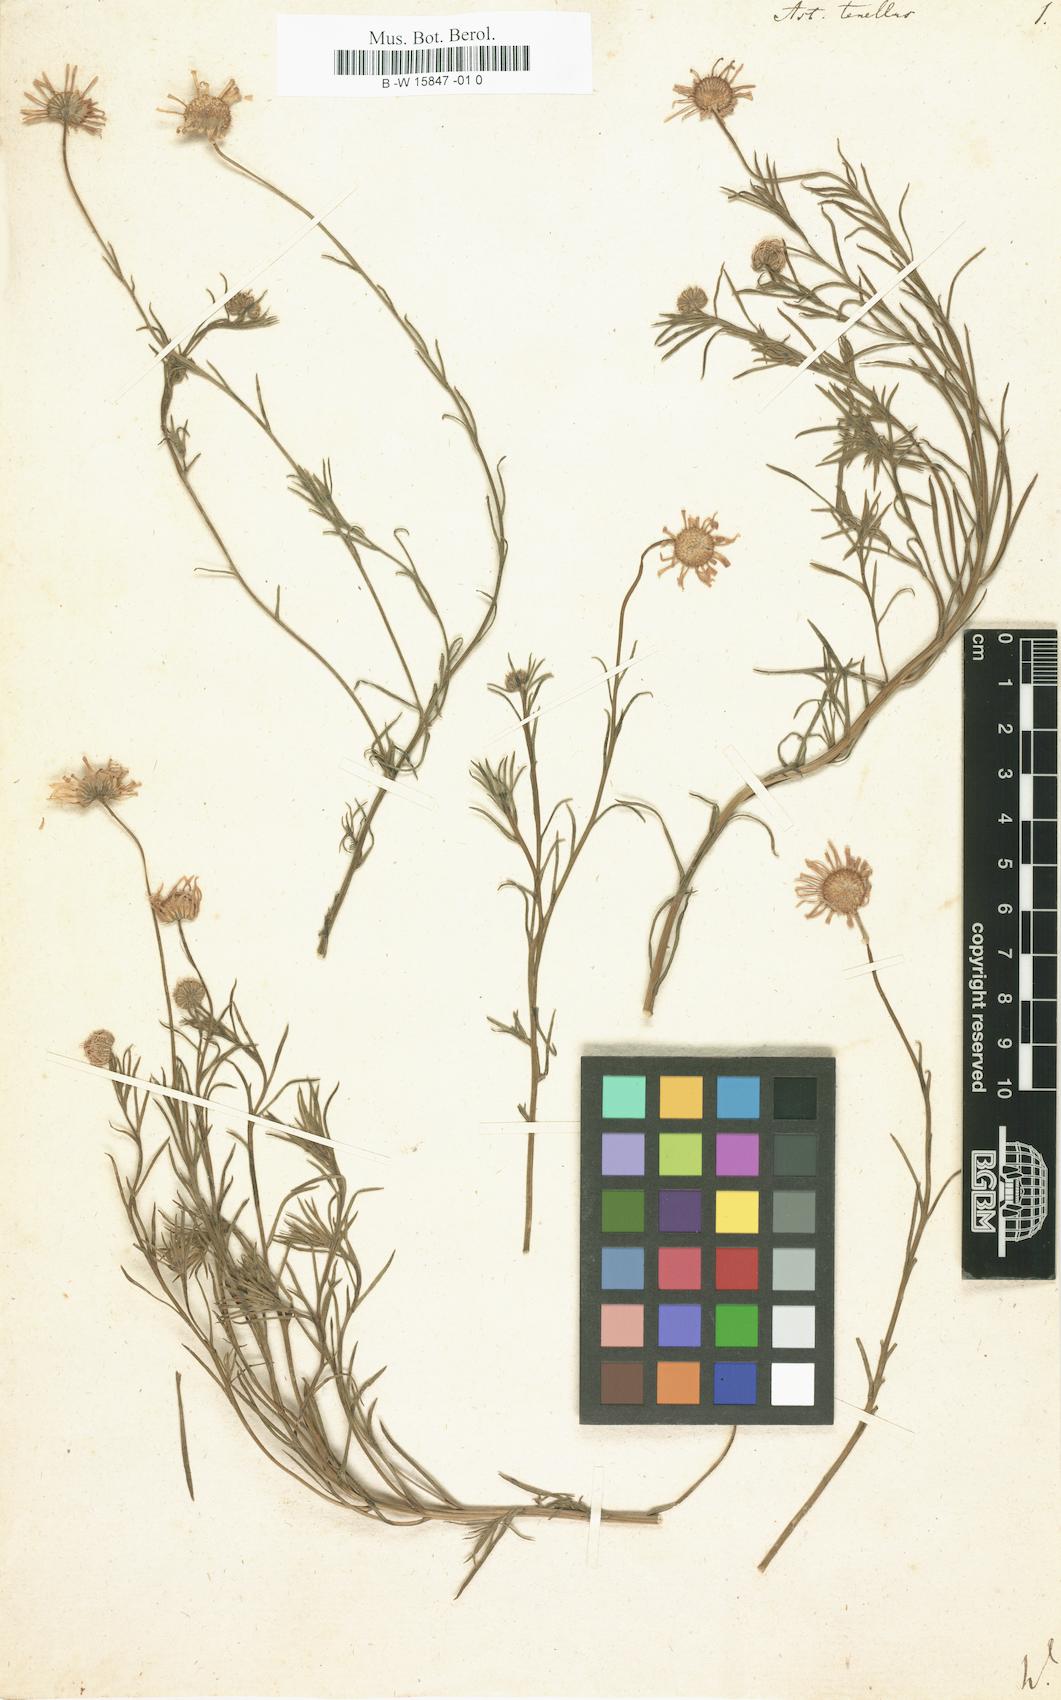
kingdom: Plantae
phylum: Tracheophyta
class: Magnoliopsida
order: Asterales
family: Asteraceae
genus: Aster
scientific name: Aster tenellus
